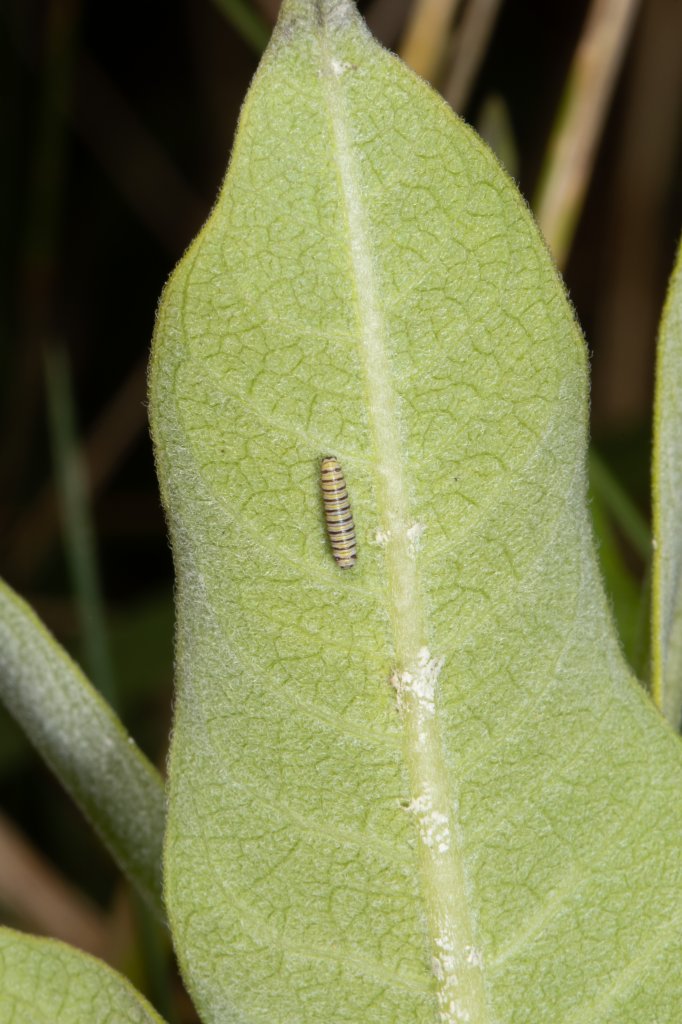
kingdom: Animalia
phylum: Arthropoda
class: Insecta
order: Lepidoptera
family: Nymphalidae
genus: Danaus
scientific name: Danaus plexippus
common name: Monarch
